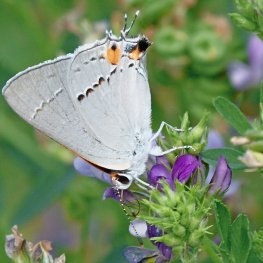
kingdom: Animalia
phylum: Arthropoda
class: Insecta
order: Lepidoptera
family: Lycaenidae
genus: Strymon
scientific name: Strymon melinus
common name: Gray Hairstreak
